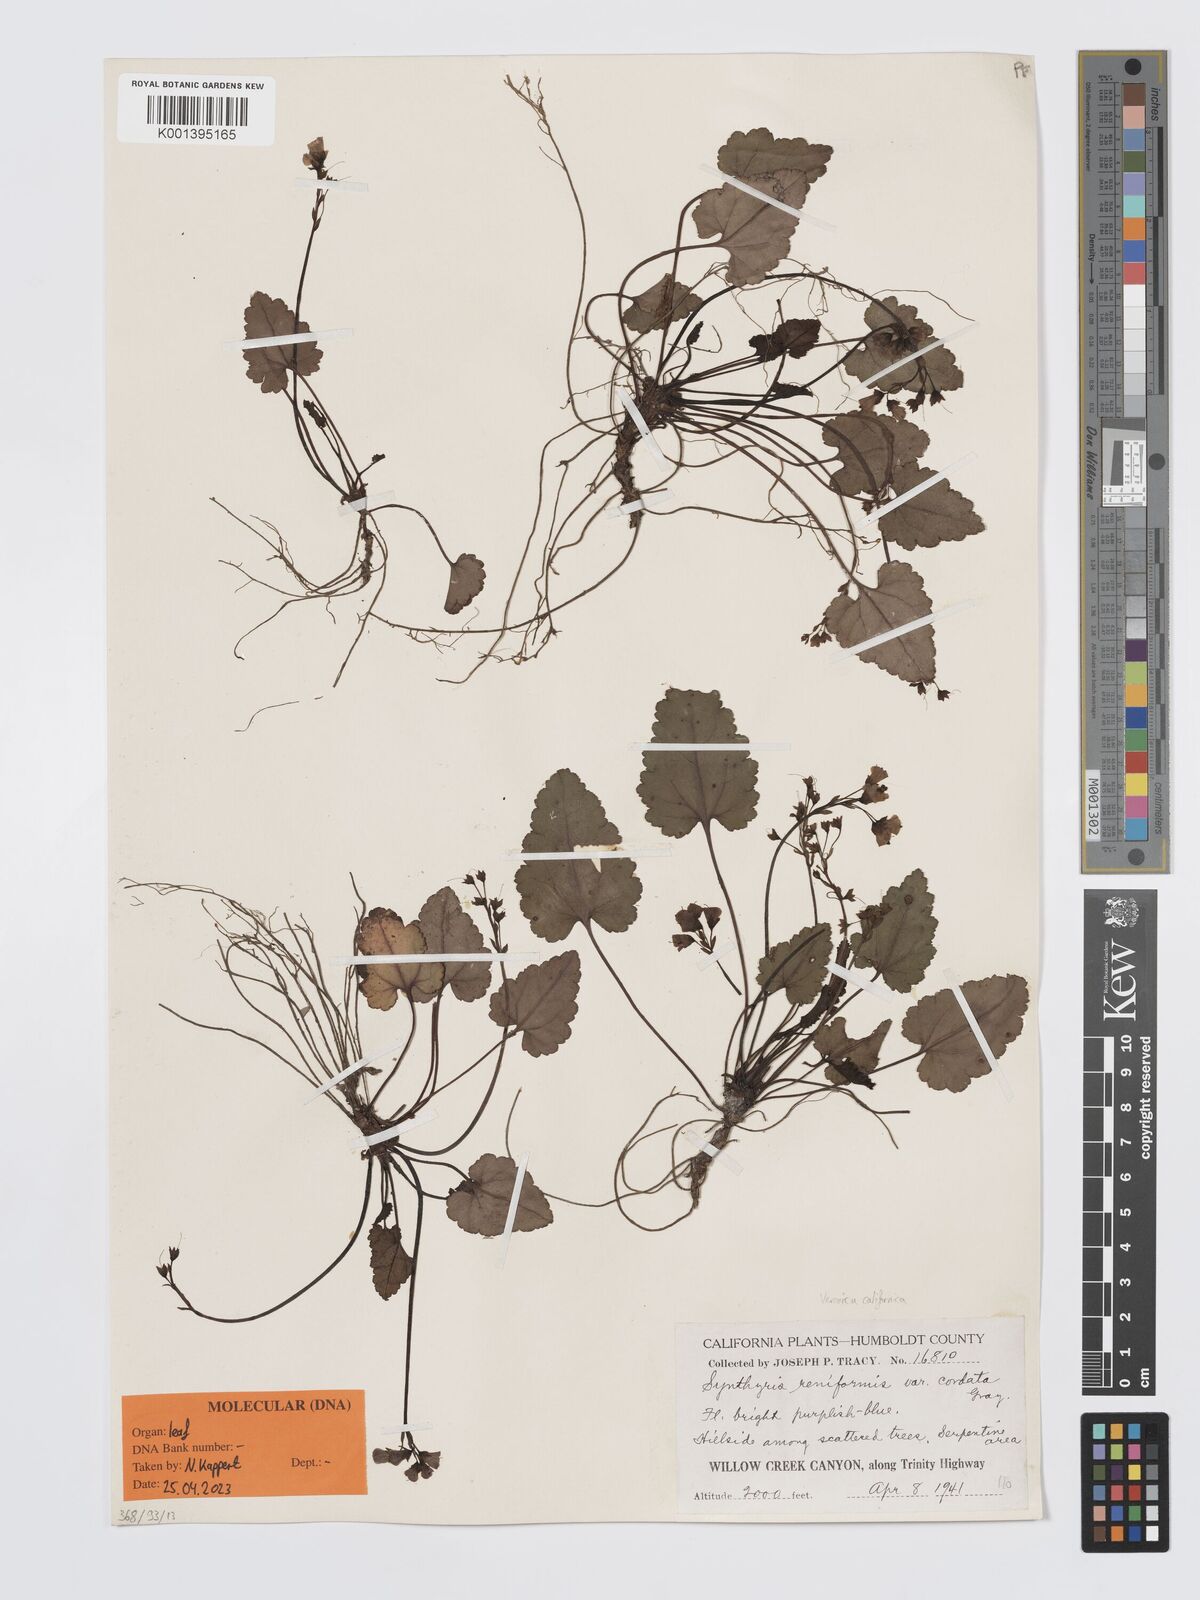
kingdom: Plantae
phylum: Tracheophyta
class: Magnoliopsida
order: Lamiales
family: Plantaginaceae
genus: Synthyris
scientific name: Synthyris cordata
